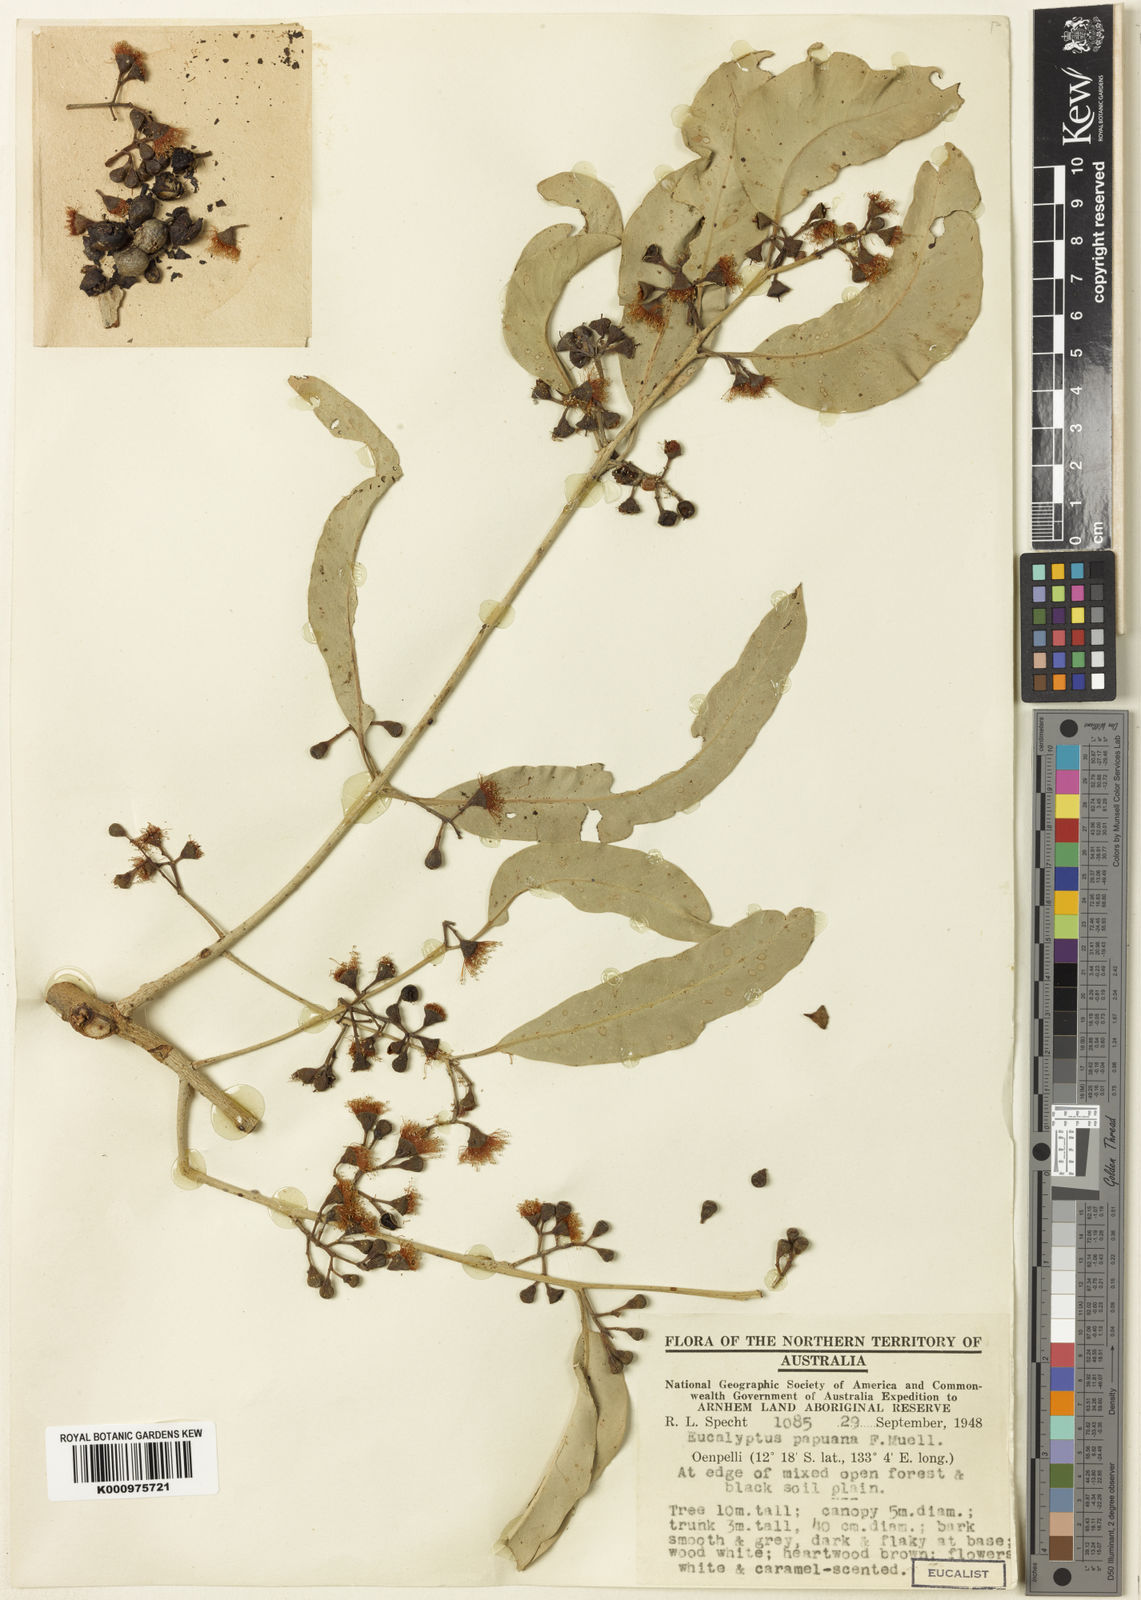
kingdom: Plantae
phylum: Tracheophyta
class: Magnoliopsida
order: Myrtales
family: Myrtaceae
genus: Corymbia
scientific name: Corymbia arafurica
